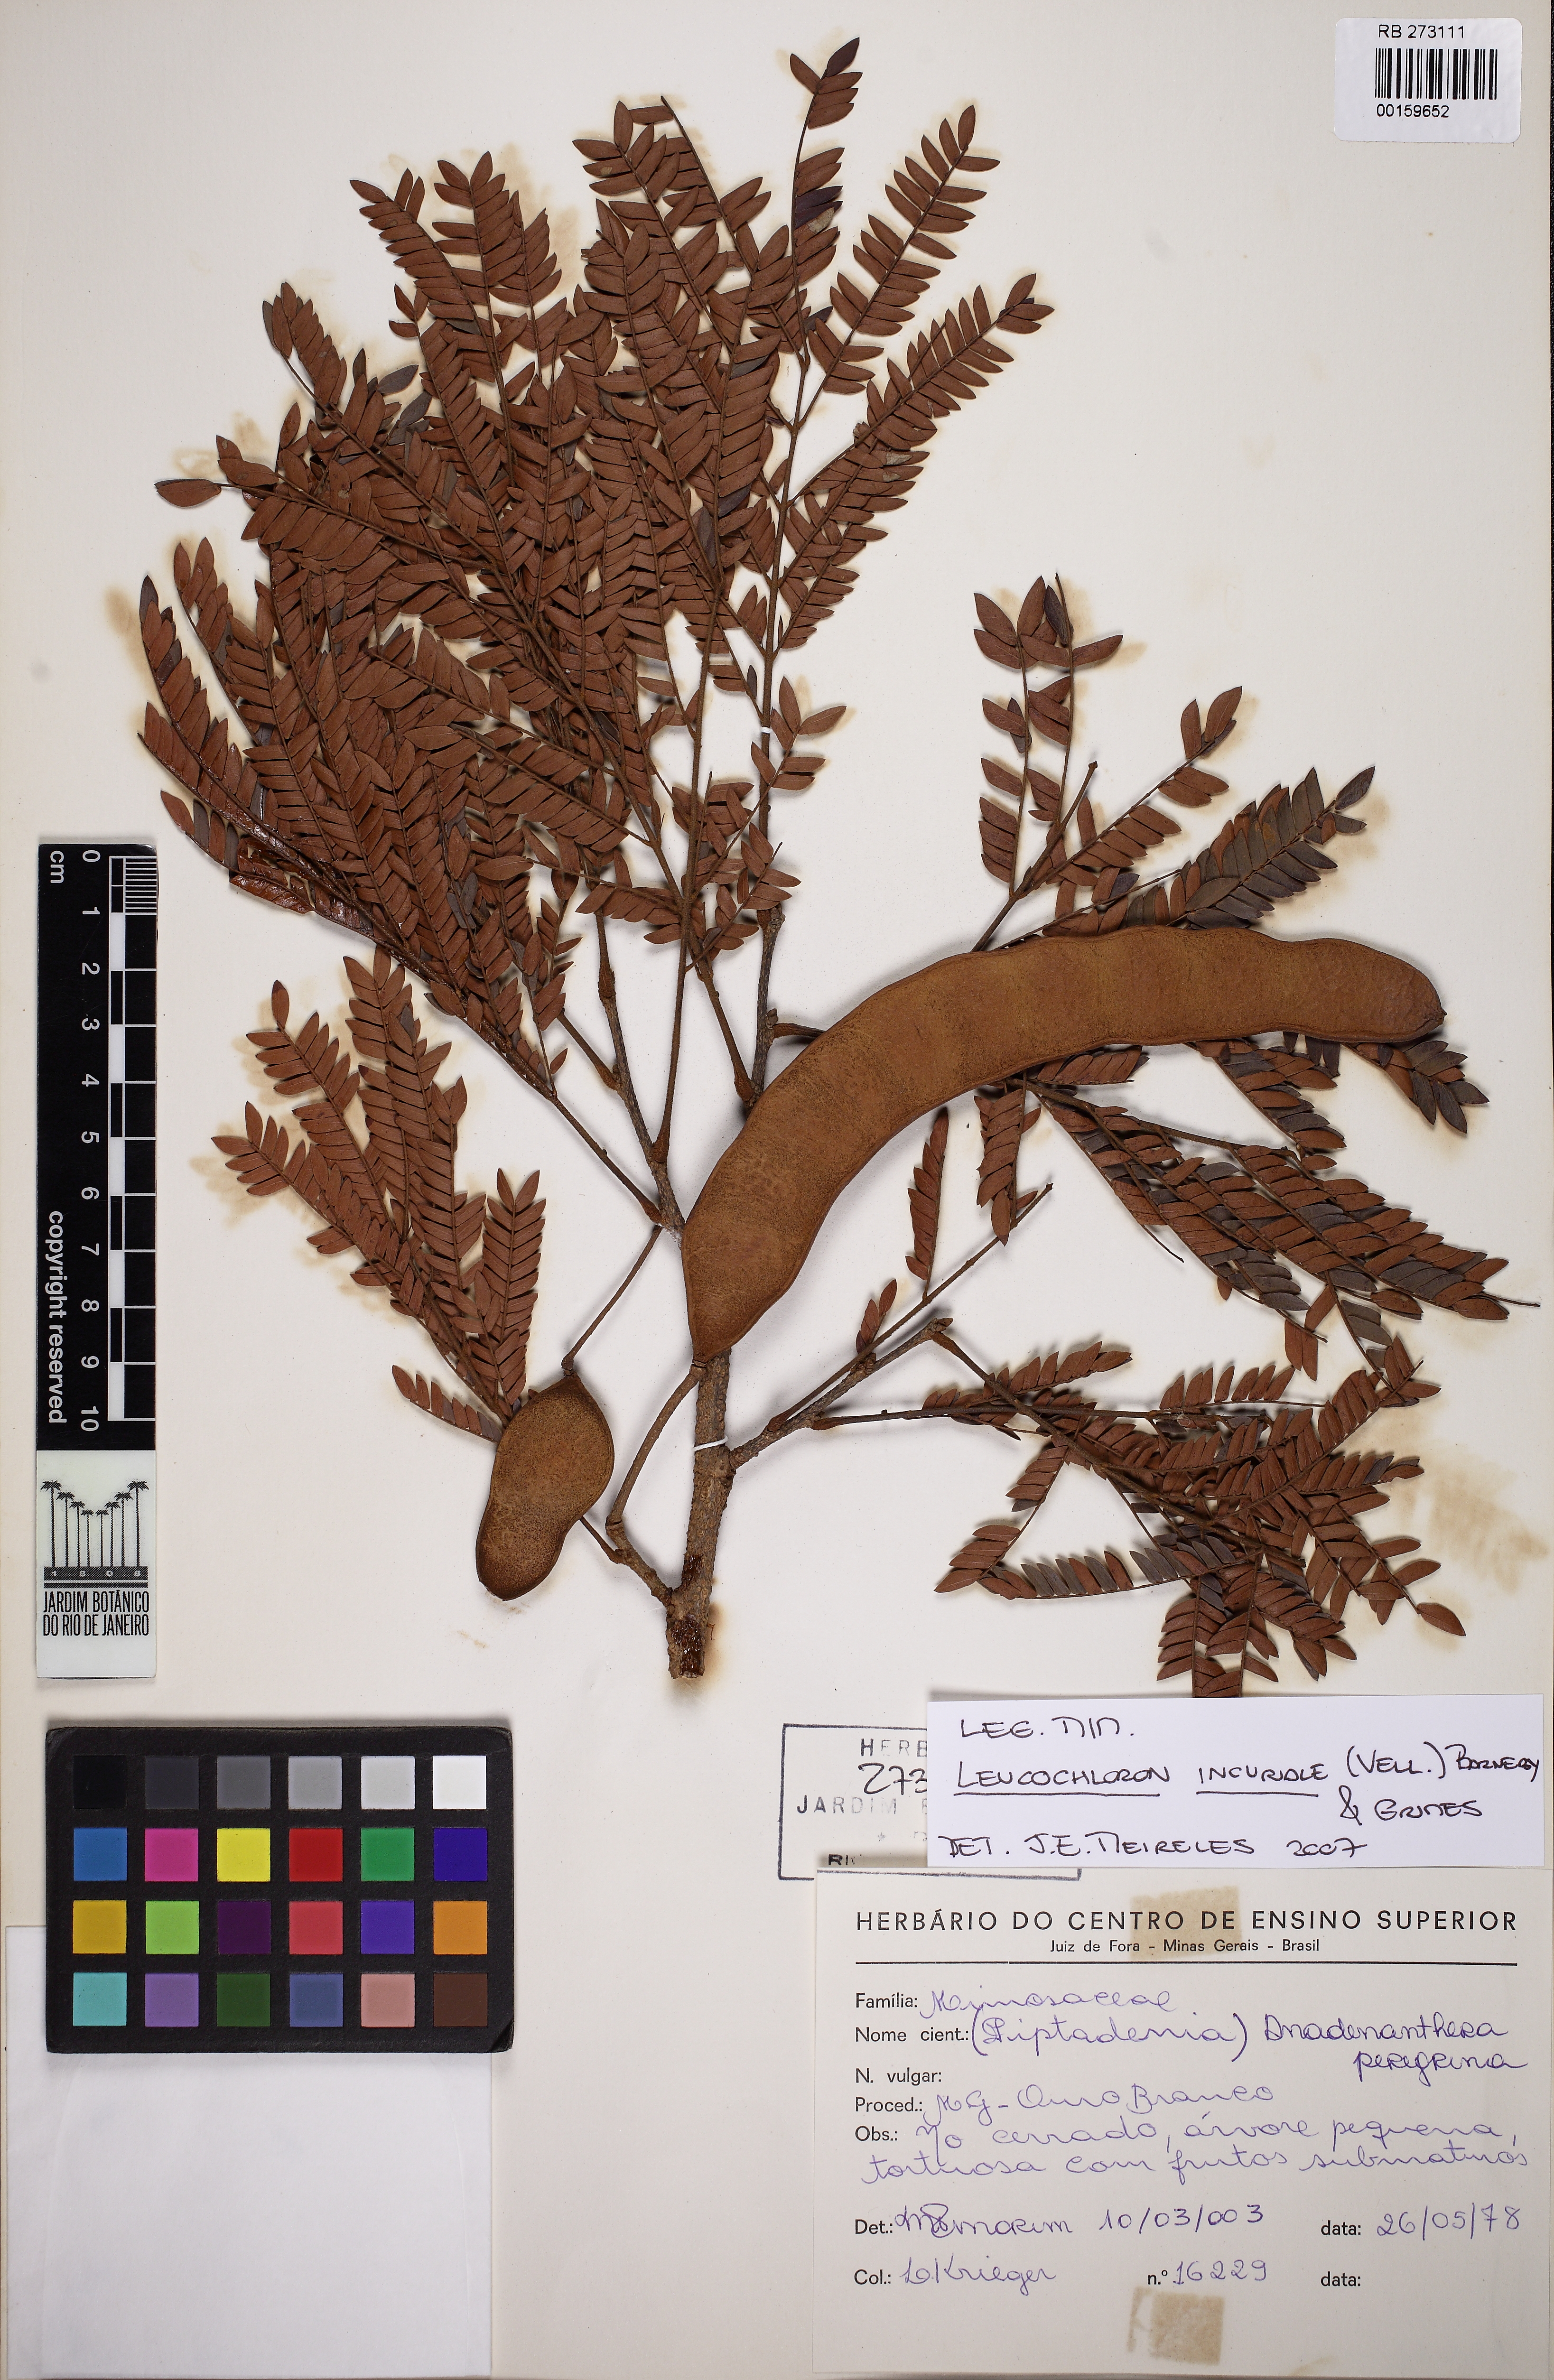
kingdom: Plantae
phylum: Tracheophyta
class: Magnoliopsida
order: Fabales
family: Fabaceae
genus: Leucochloron
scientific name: Leucochloron incuriale
